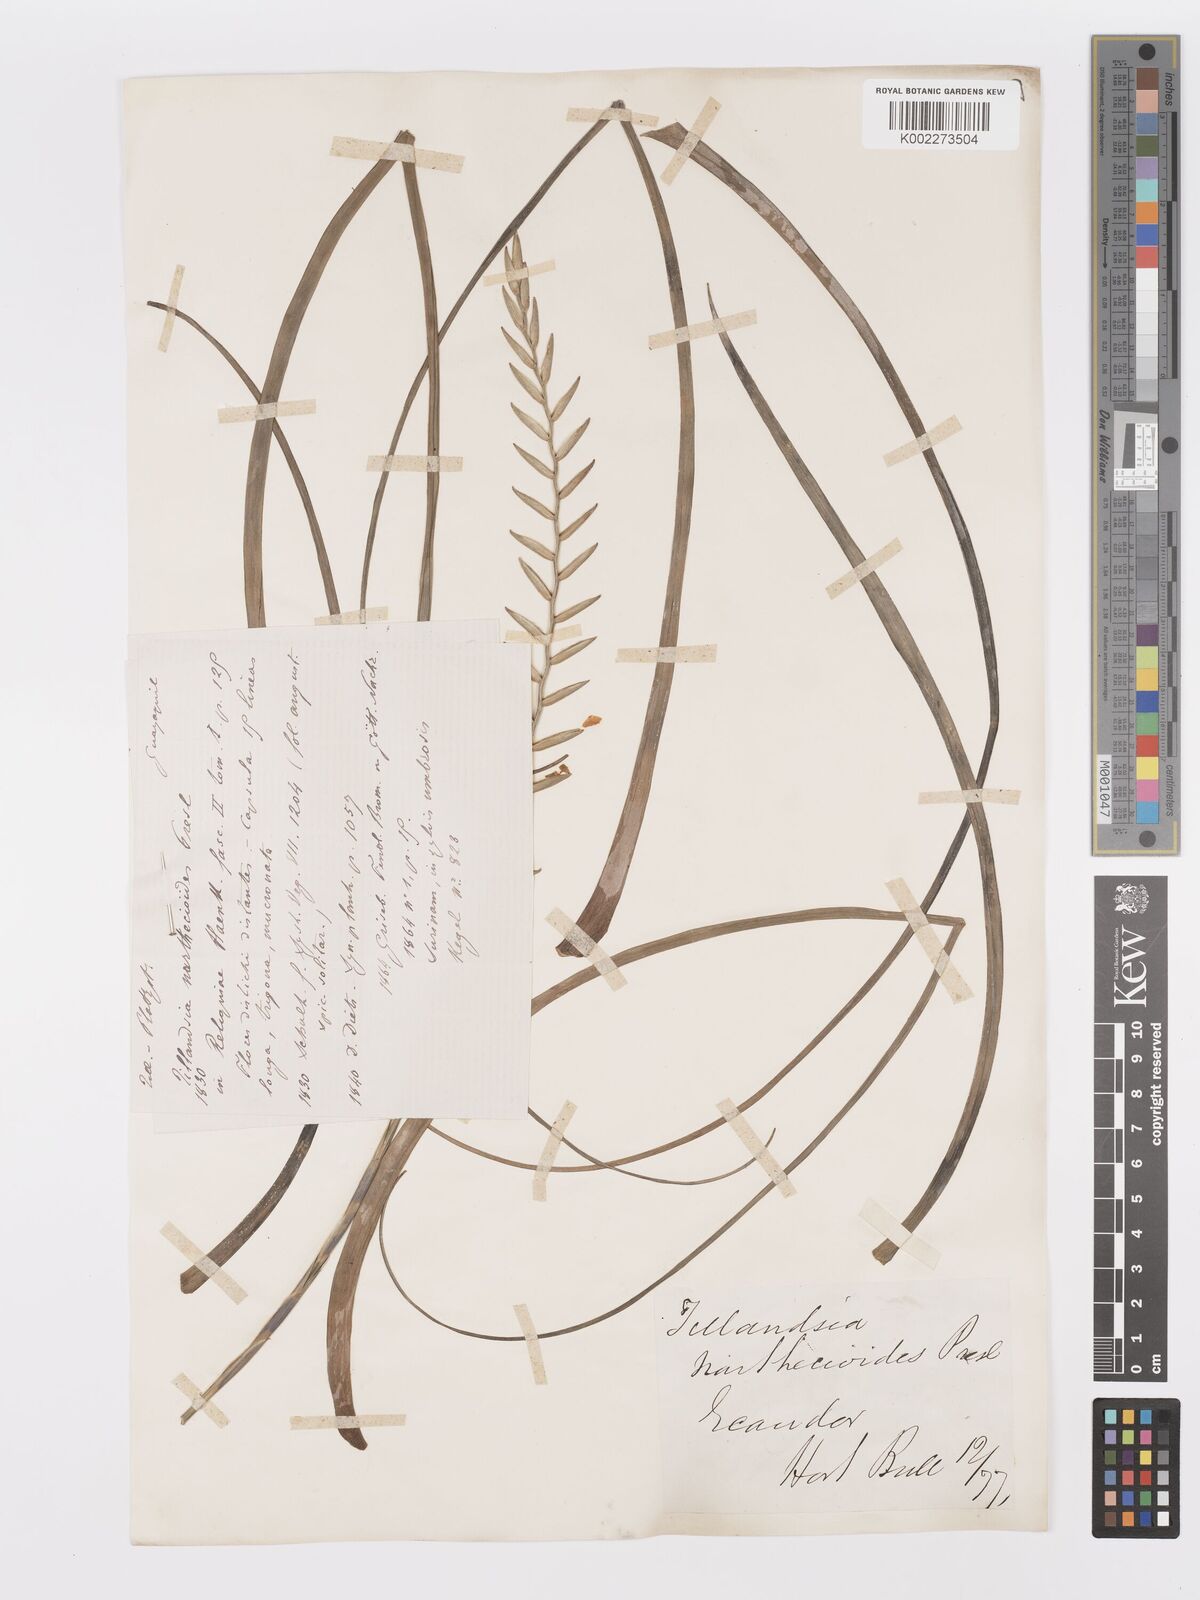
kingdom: Plantae
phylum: Tracheophyta
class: Liliopsida
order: Poales
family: Bromeliaceae
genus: Lemeltonia
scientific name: Lemeltonia narthecioides
